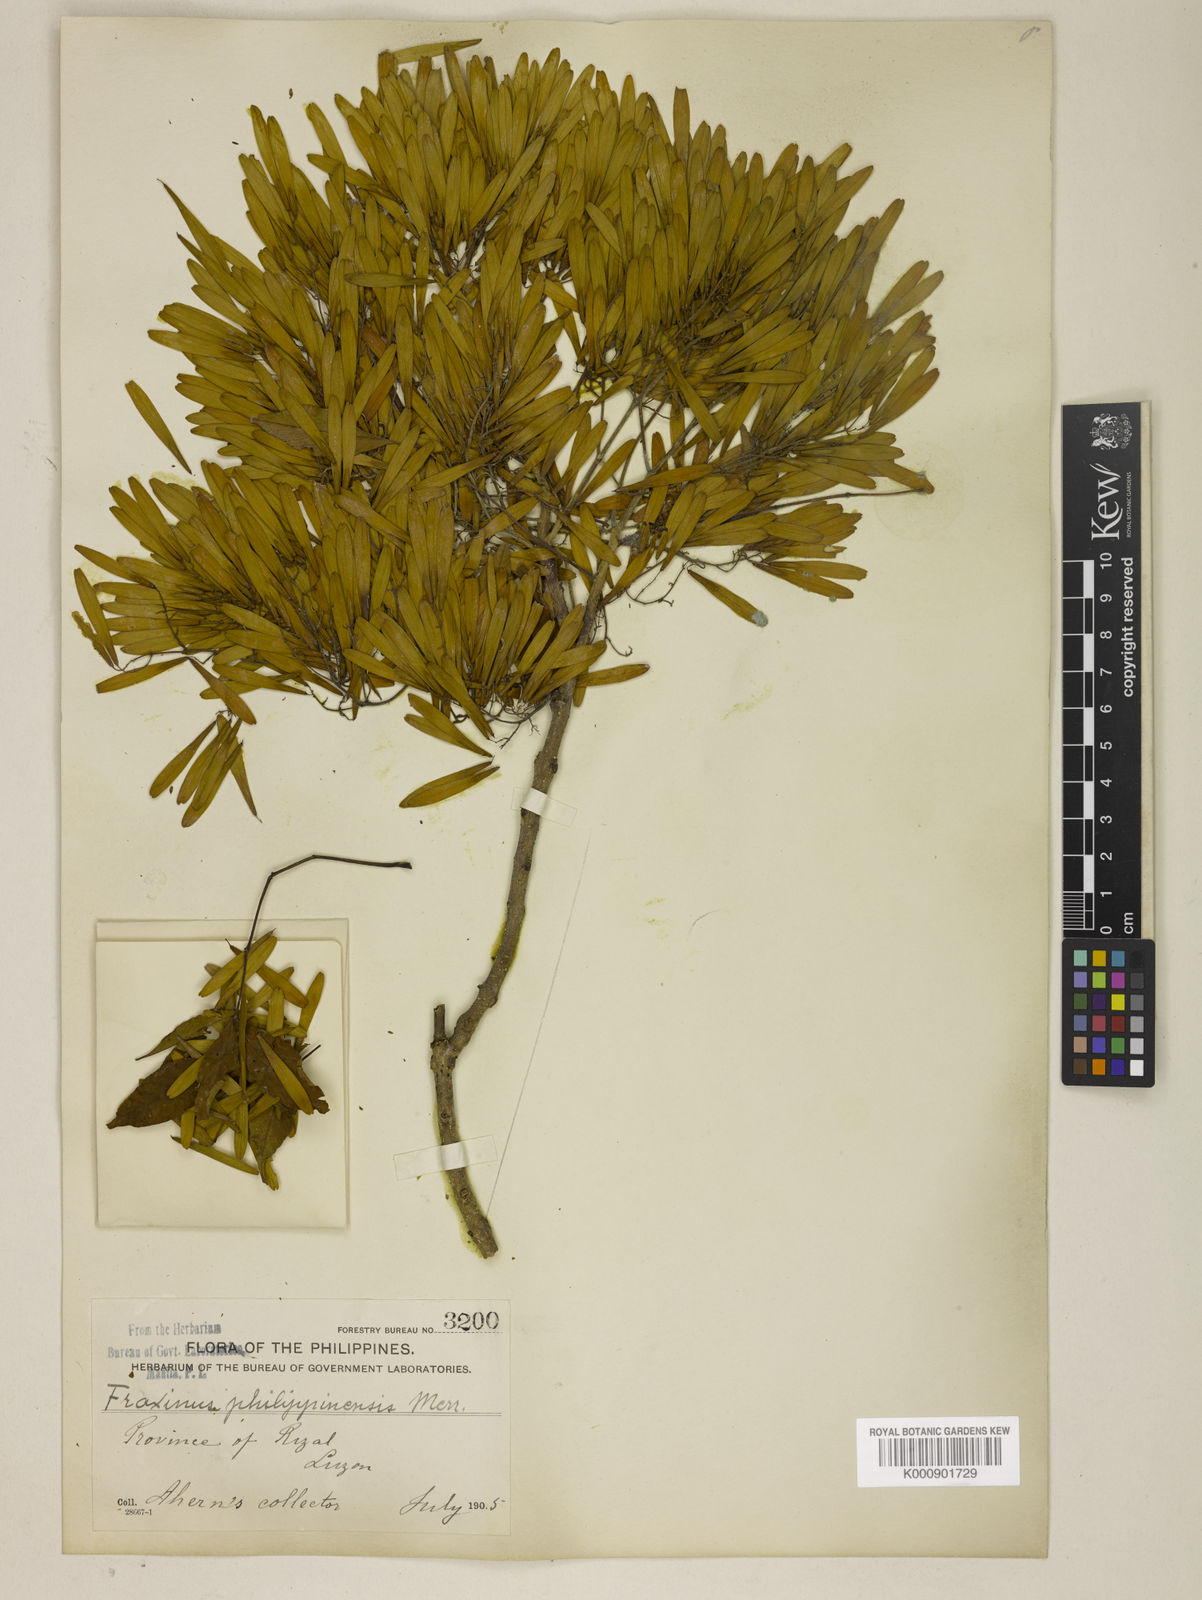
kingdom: Plantae
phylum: Tracheophyta
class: Magnoliopsida
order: Lamiales
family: Oleaceae
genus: Fraxinus
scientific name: Fraxinus griffithii
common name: Himalayan ash
